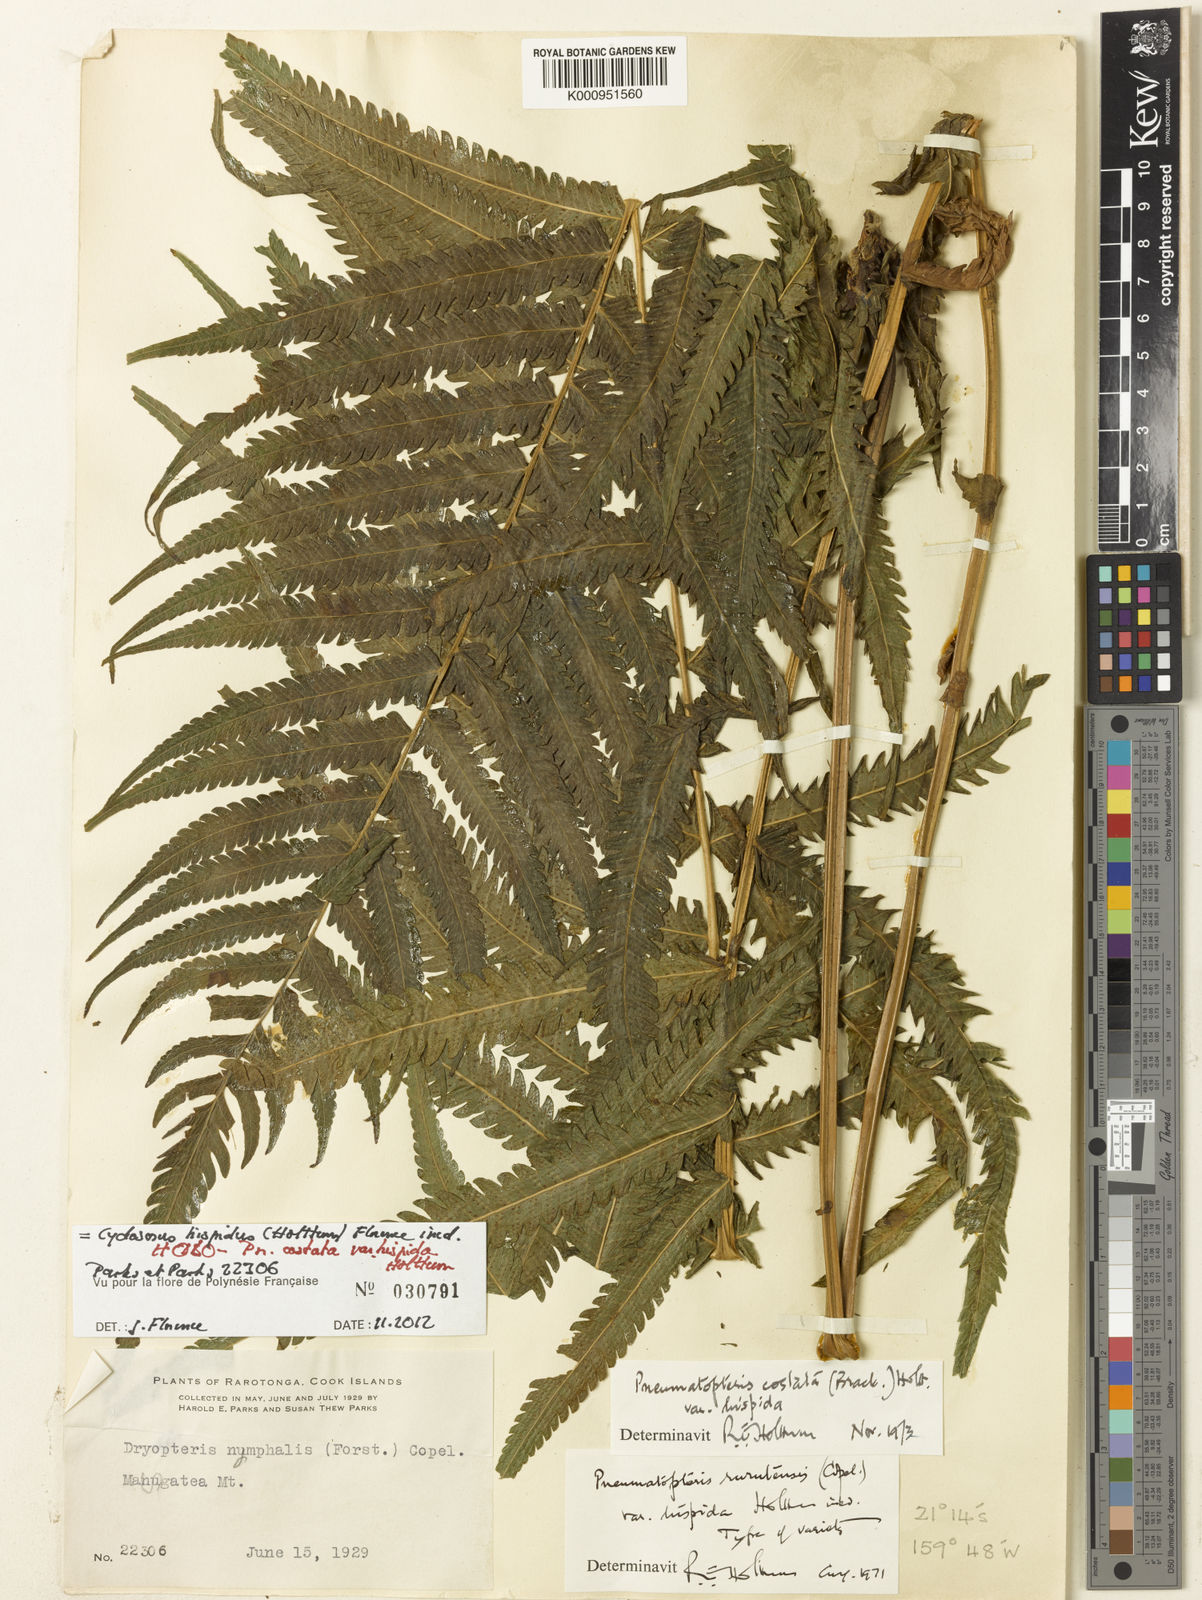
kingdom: Plantae
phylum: Tracheophyta
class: Polypodiopsida
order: Polypodiales
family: Thelypteridaceae
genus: Reholttumia
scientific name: Reholttumia costata
